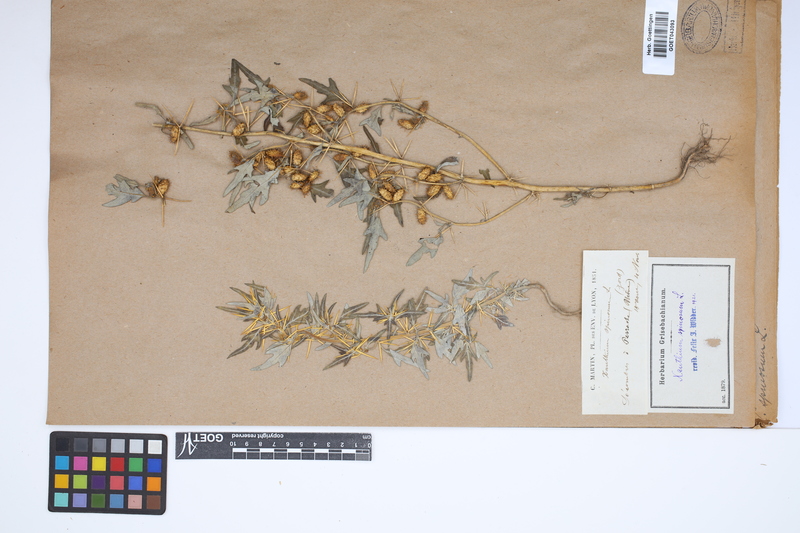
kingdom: Plantae
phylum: Tracheophyta
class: Magnoliopsida
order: Asterales
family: Asteraceae
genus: Xanthium
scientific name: Xanthium spinosum
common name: Spiny cocklebur
